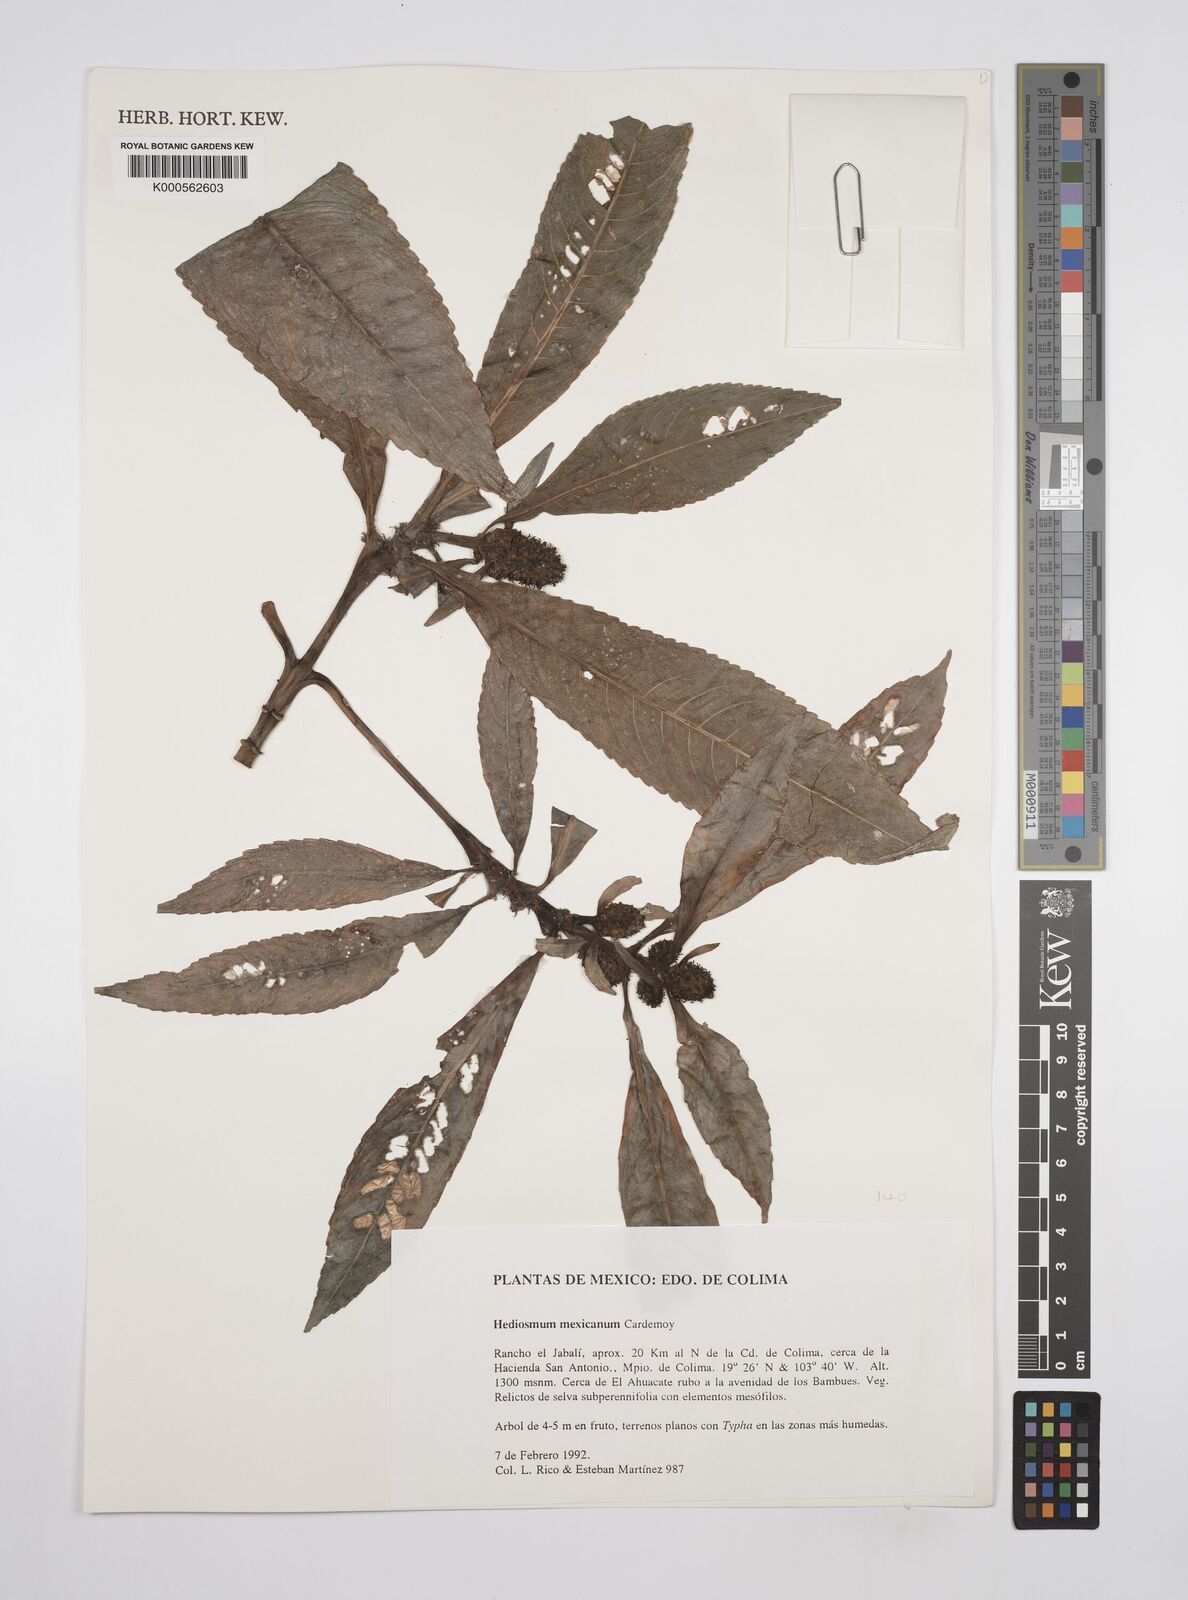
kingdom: Plantae
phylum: Tracheophyta
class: Magnoliopsida
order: Chloranthales
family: Chloranthaceae
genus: Hedyosmum
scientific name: Hedyosmum mexicanum
